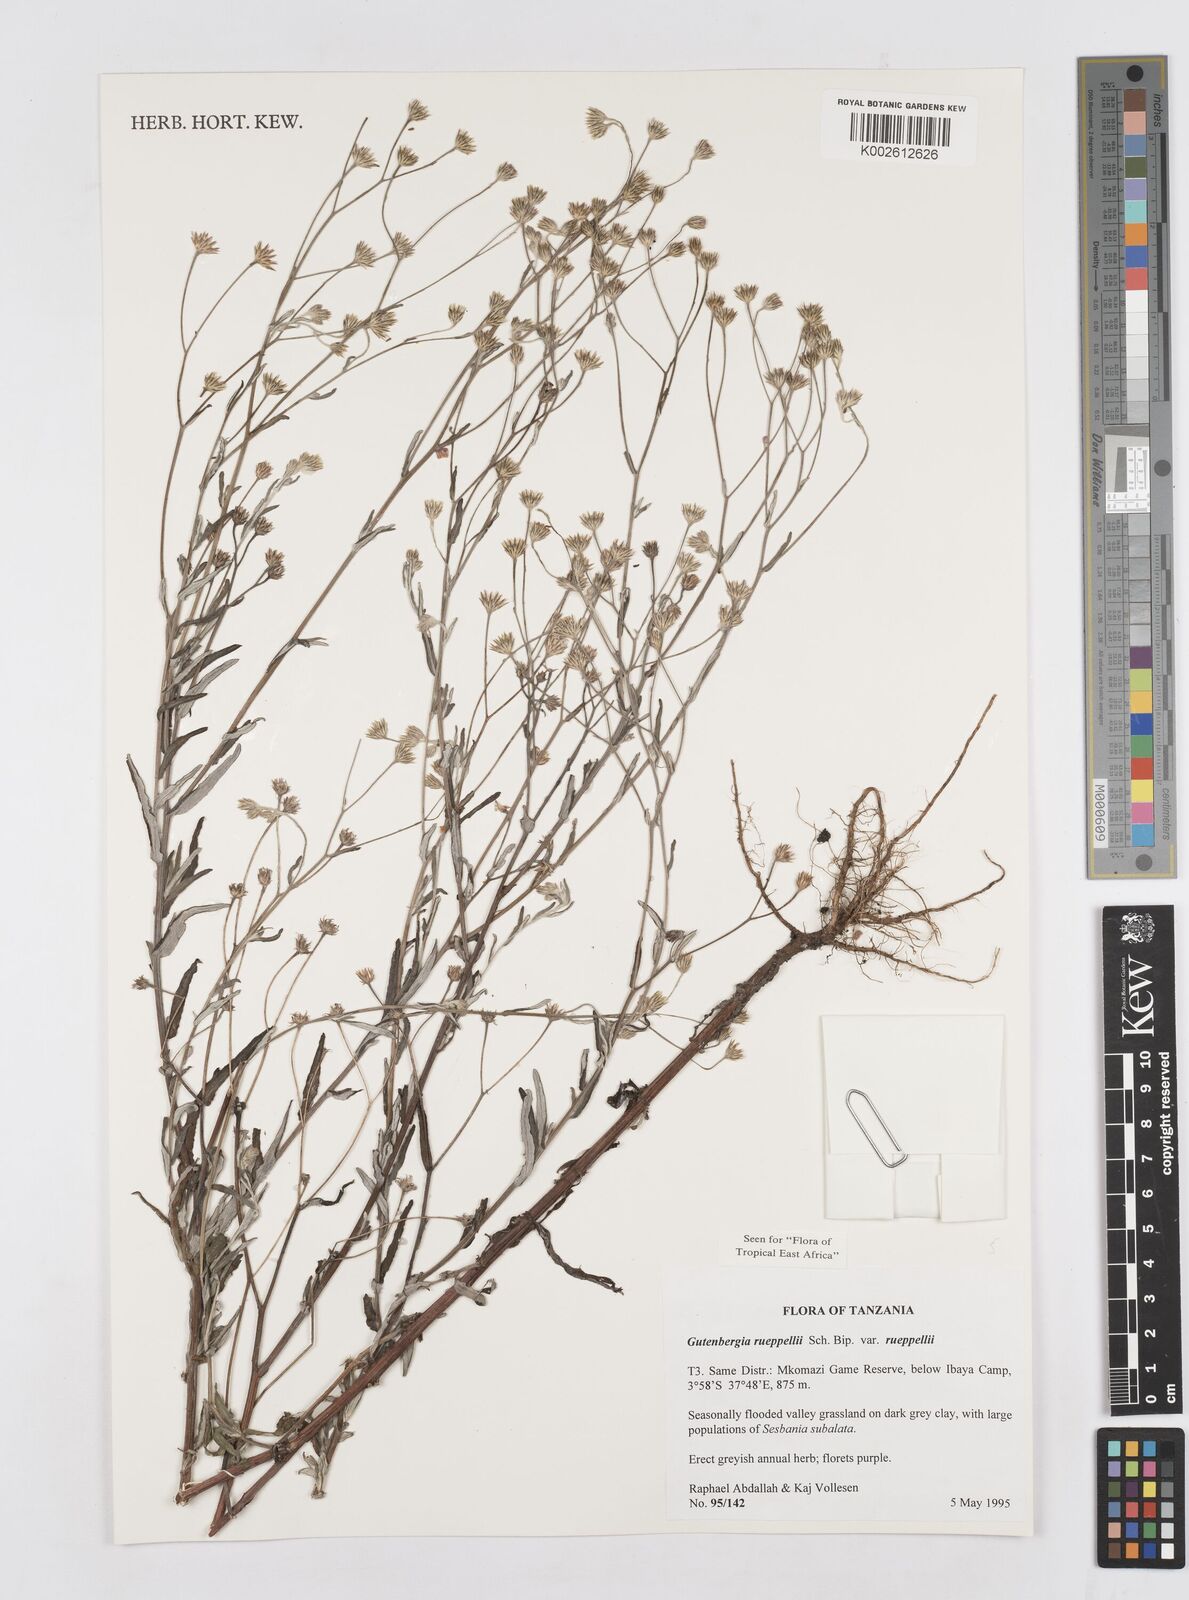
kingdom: Plantae
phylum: Tracheophyta
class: Magnoliopsida
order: Asterales
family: Asteraceae
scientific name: Asteraceae
